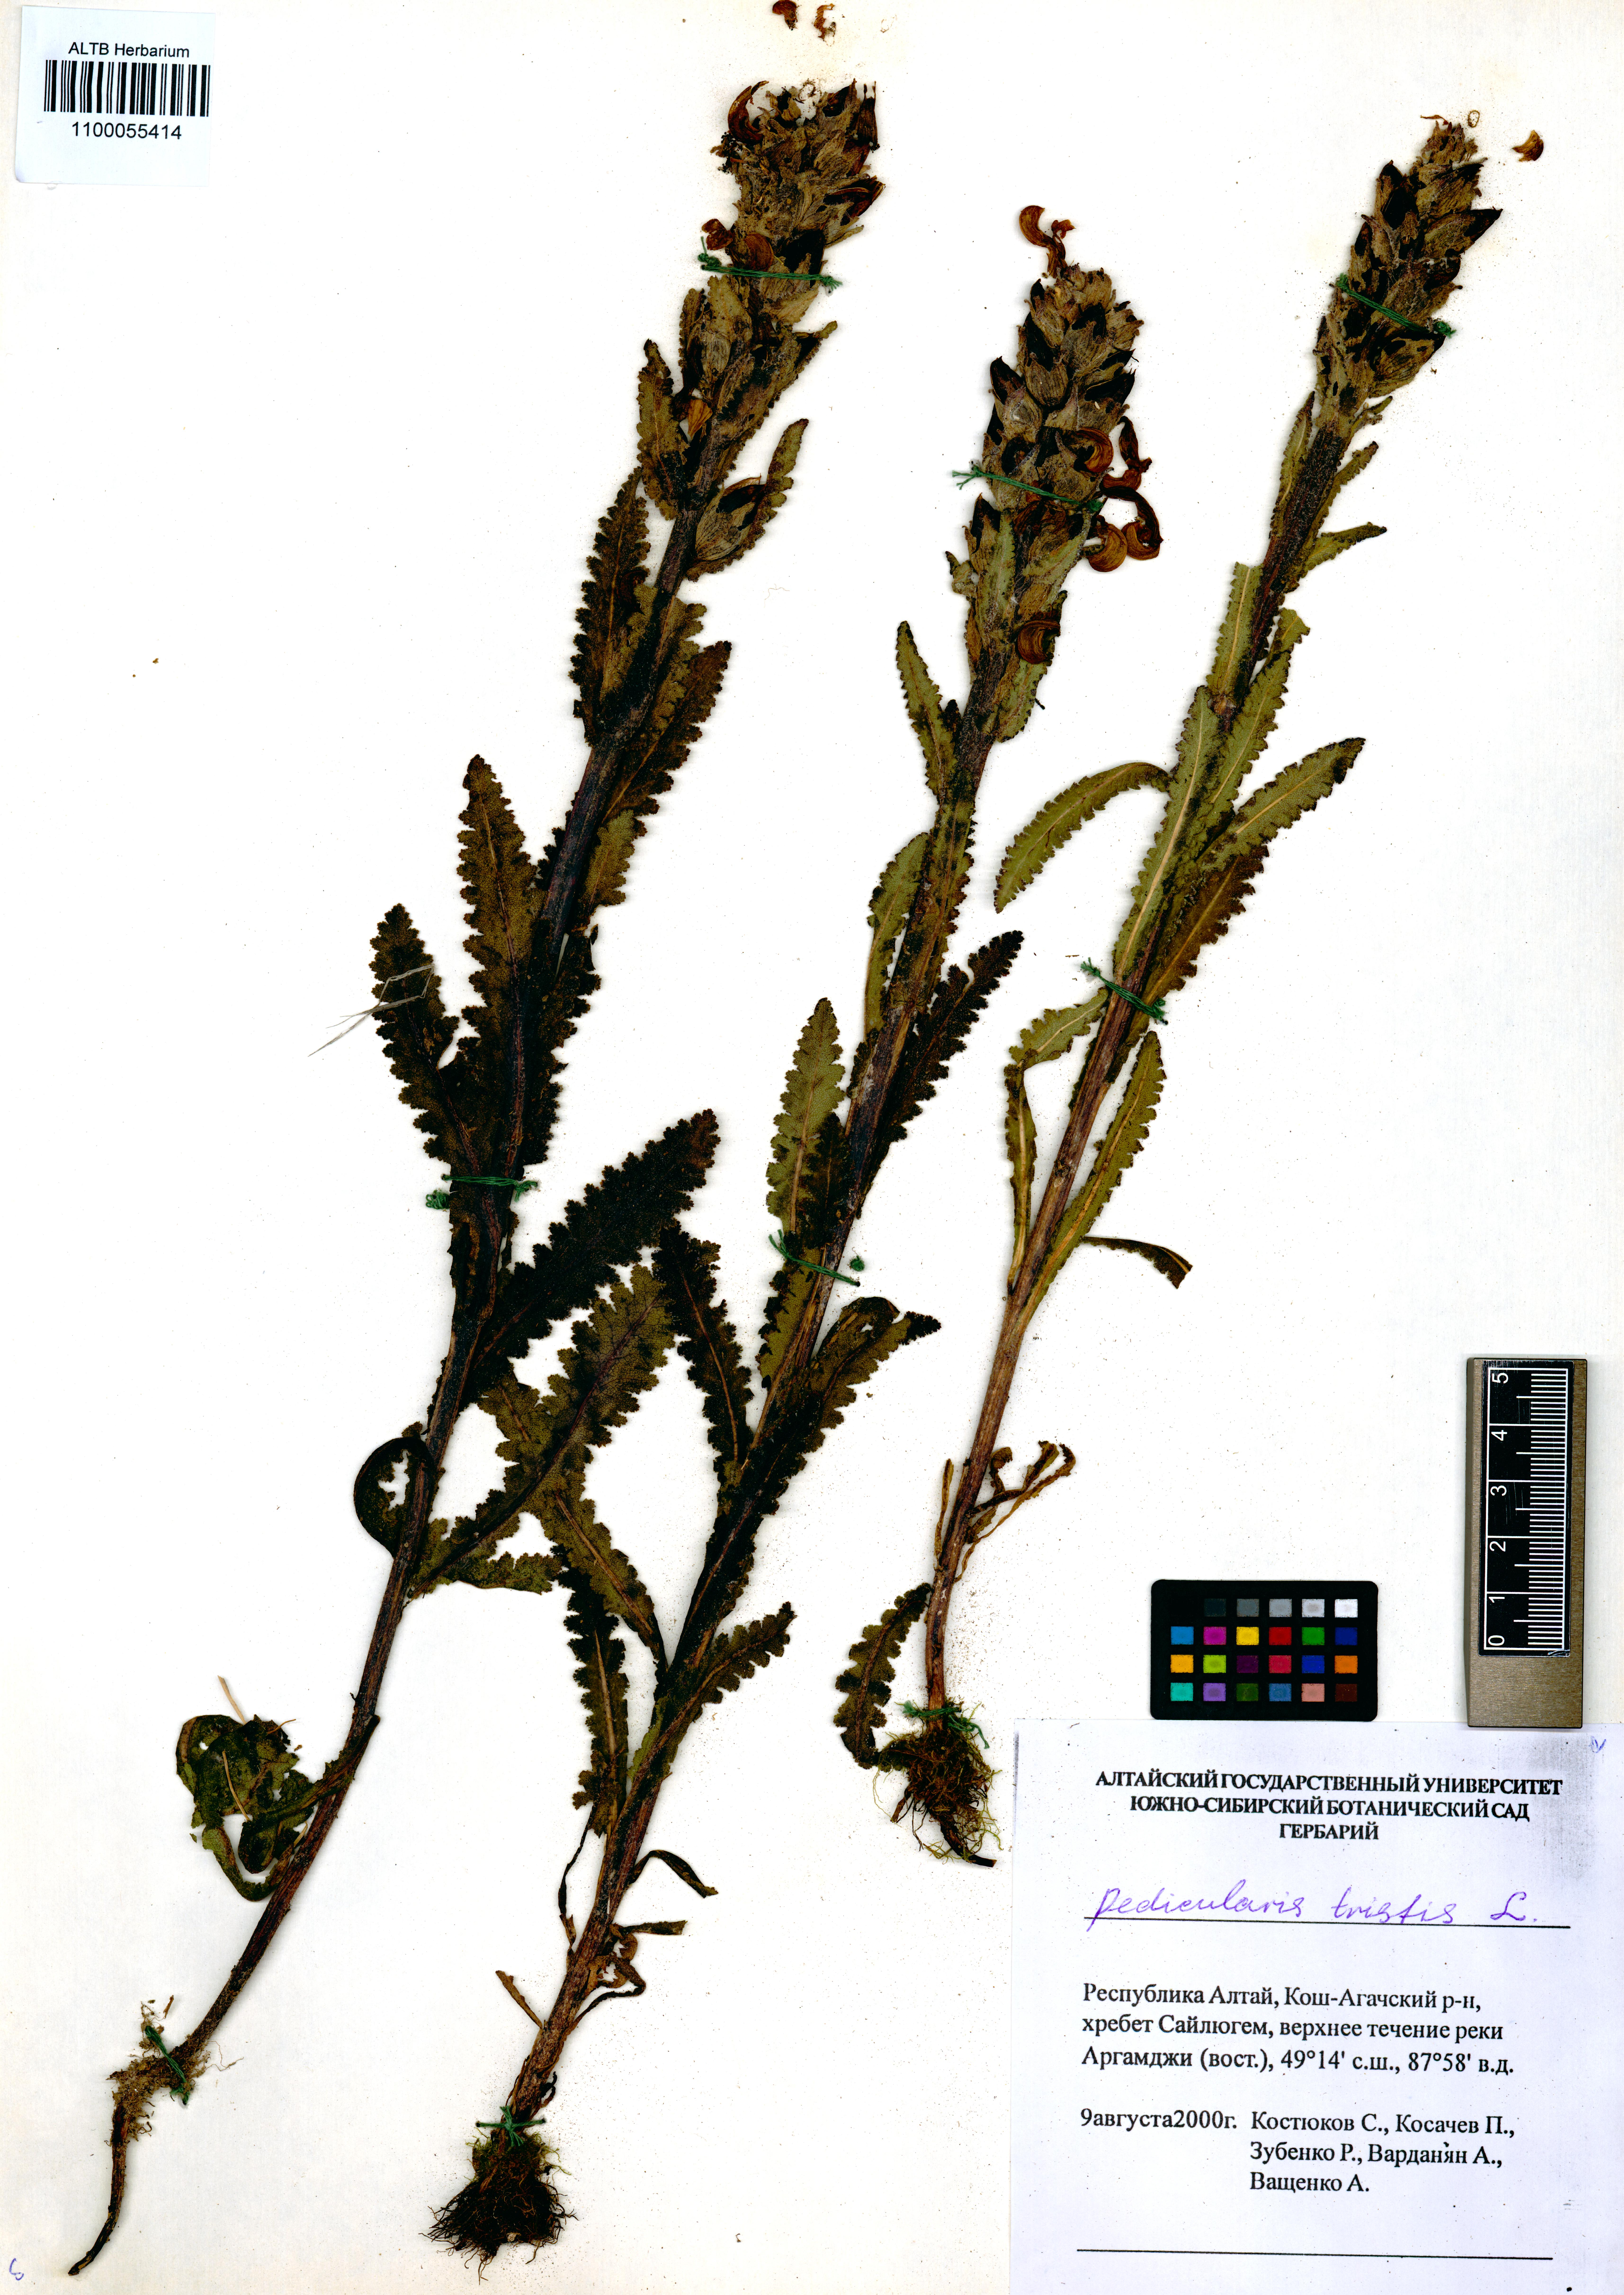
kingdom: Plantae
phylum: Tracheophyta
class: Magnoliopsida
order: Lamiales
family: Orobanchaceae
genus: Pedicularis
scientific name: Pedicularis tristis
